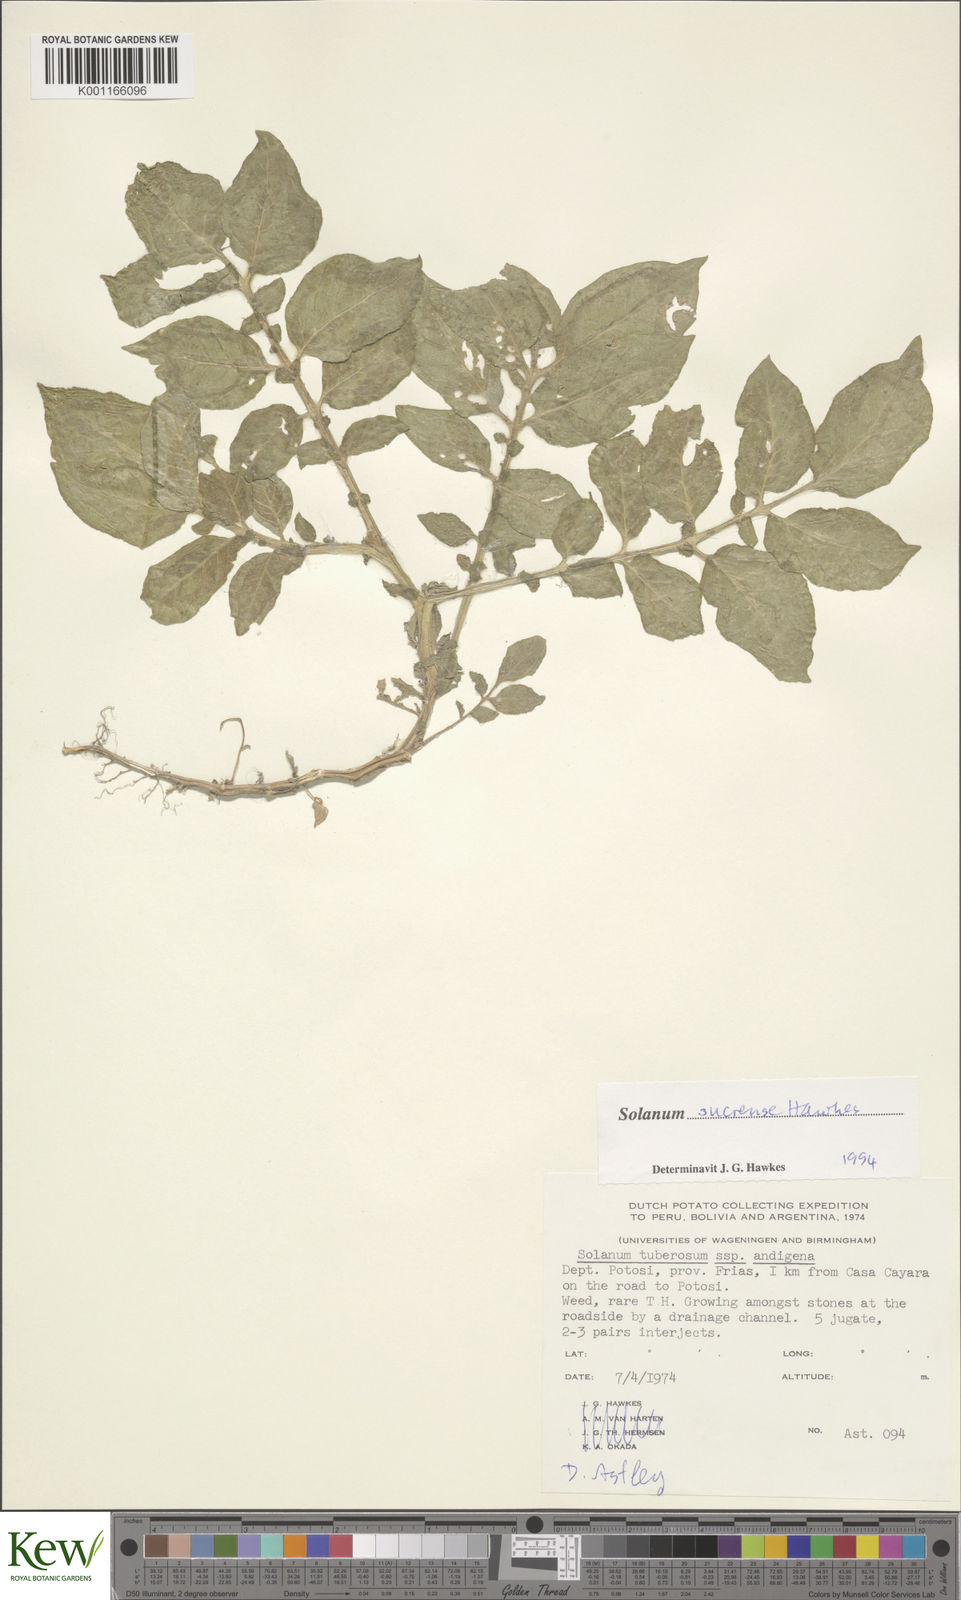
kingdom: Plantae
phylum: Tracheophyta
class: Magnoliopsida
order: Solanales
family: Solanaceae
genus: Solanum
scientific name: Solanum brevicaule
